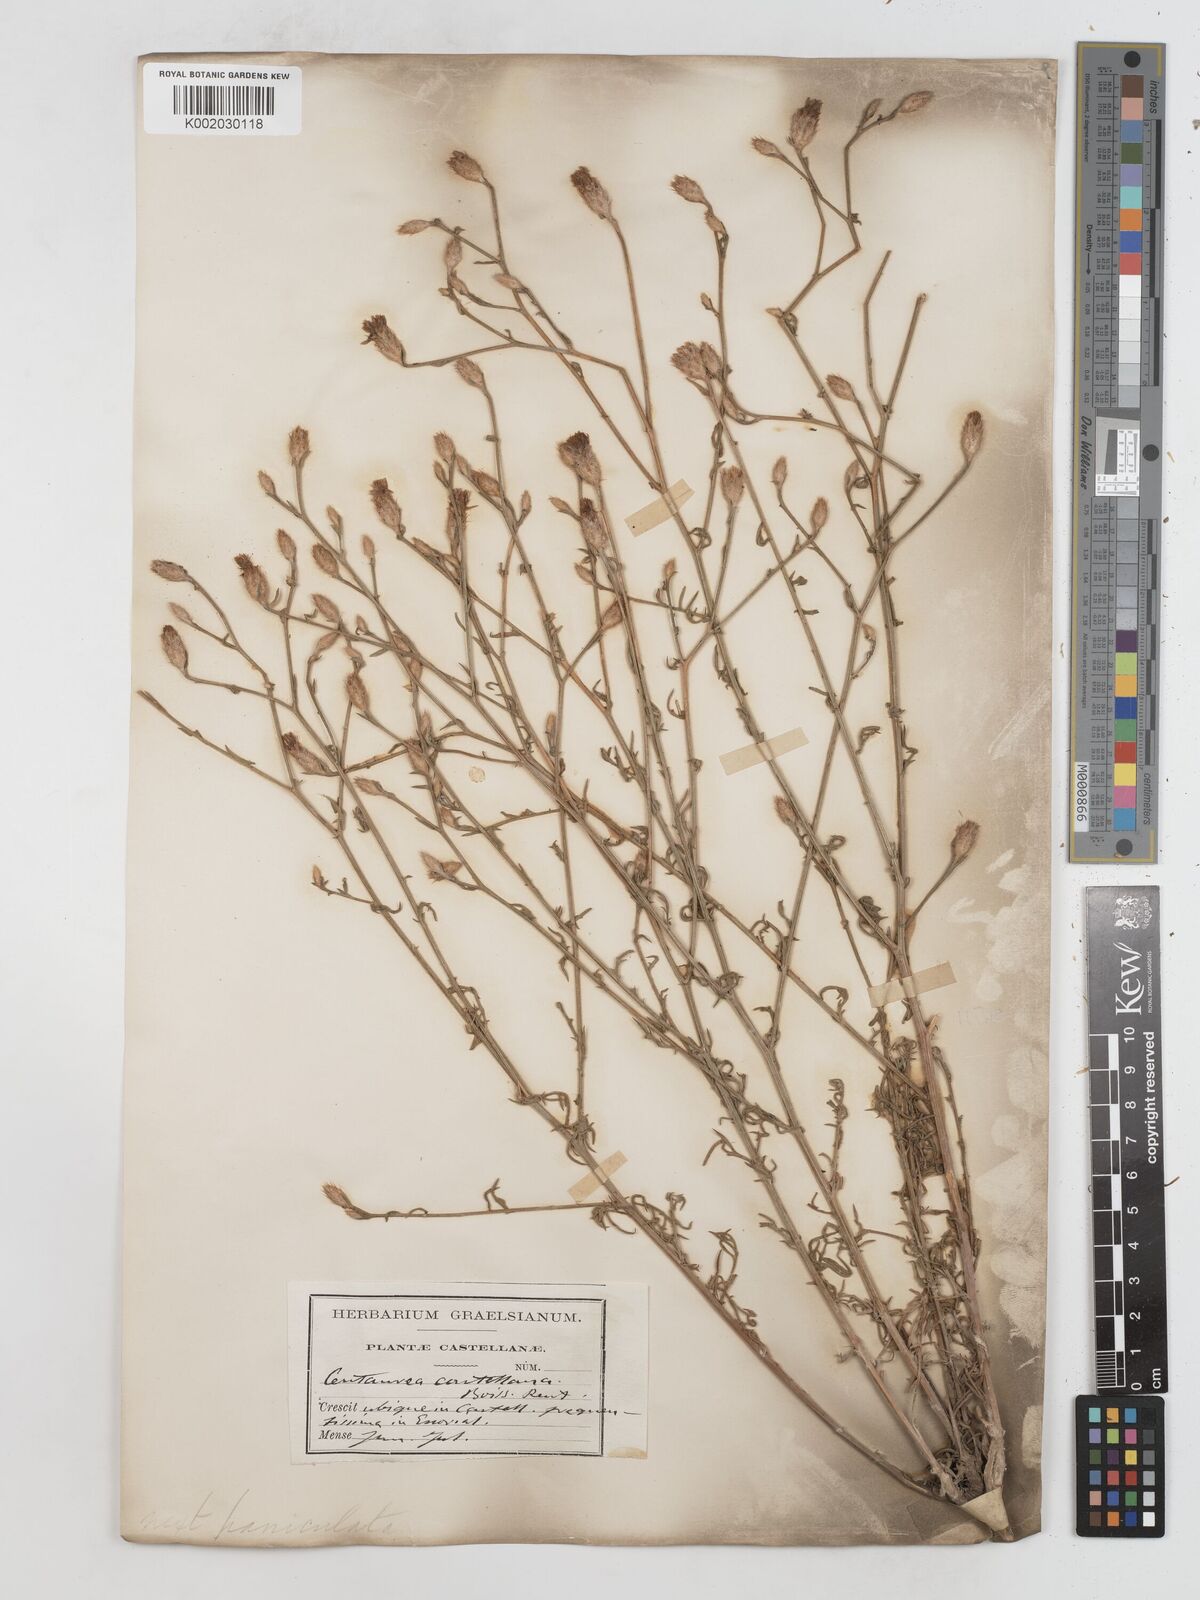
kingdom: Plantae
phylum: Tracheophyta
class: Magnoliopsida
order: Asterales
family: Asteraceae
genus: Centaurea
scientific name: Centaurea aristata
